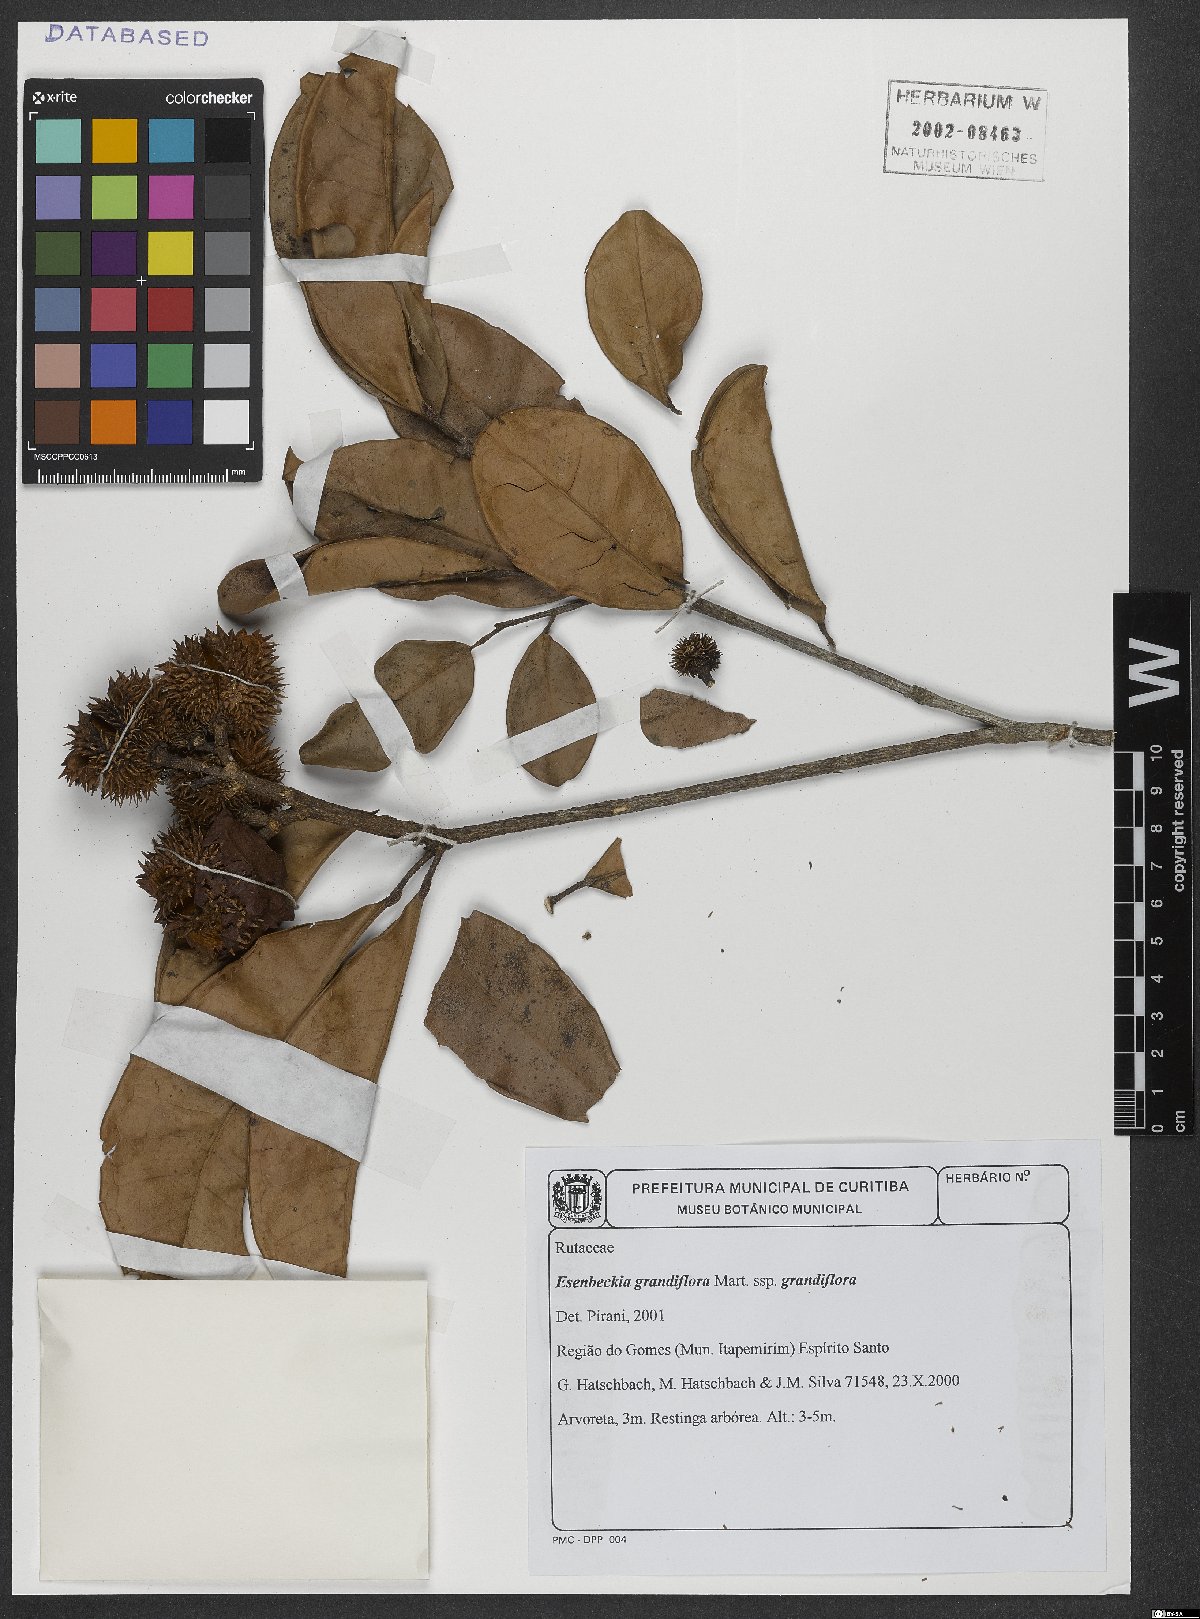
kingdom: Plantae
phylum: Tracheophyta
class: Magnoliopsida
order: Sapindales
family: Rutaceae
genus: Esenbeckia
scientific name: Esenbeckia grandiflora
